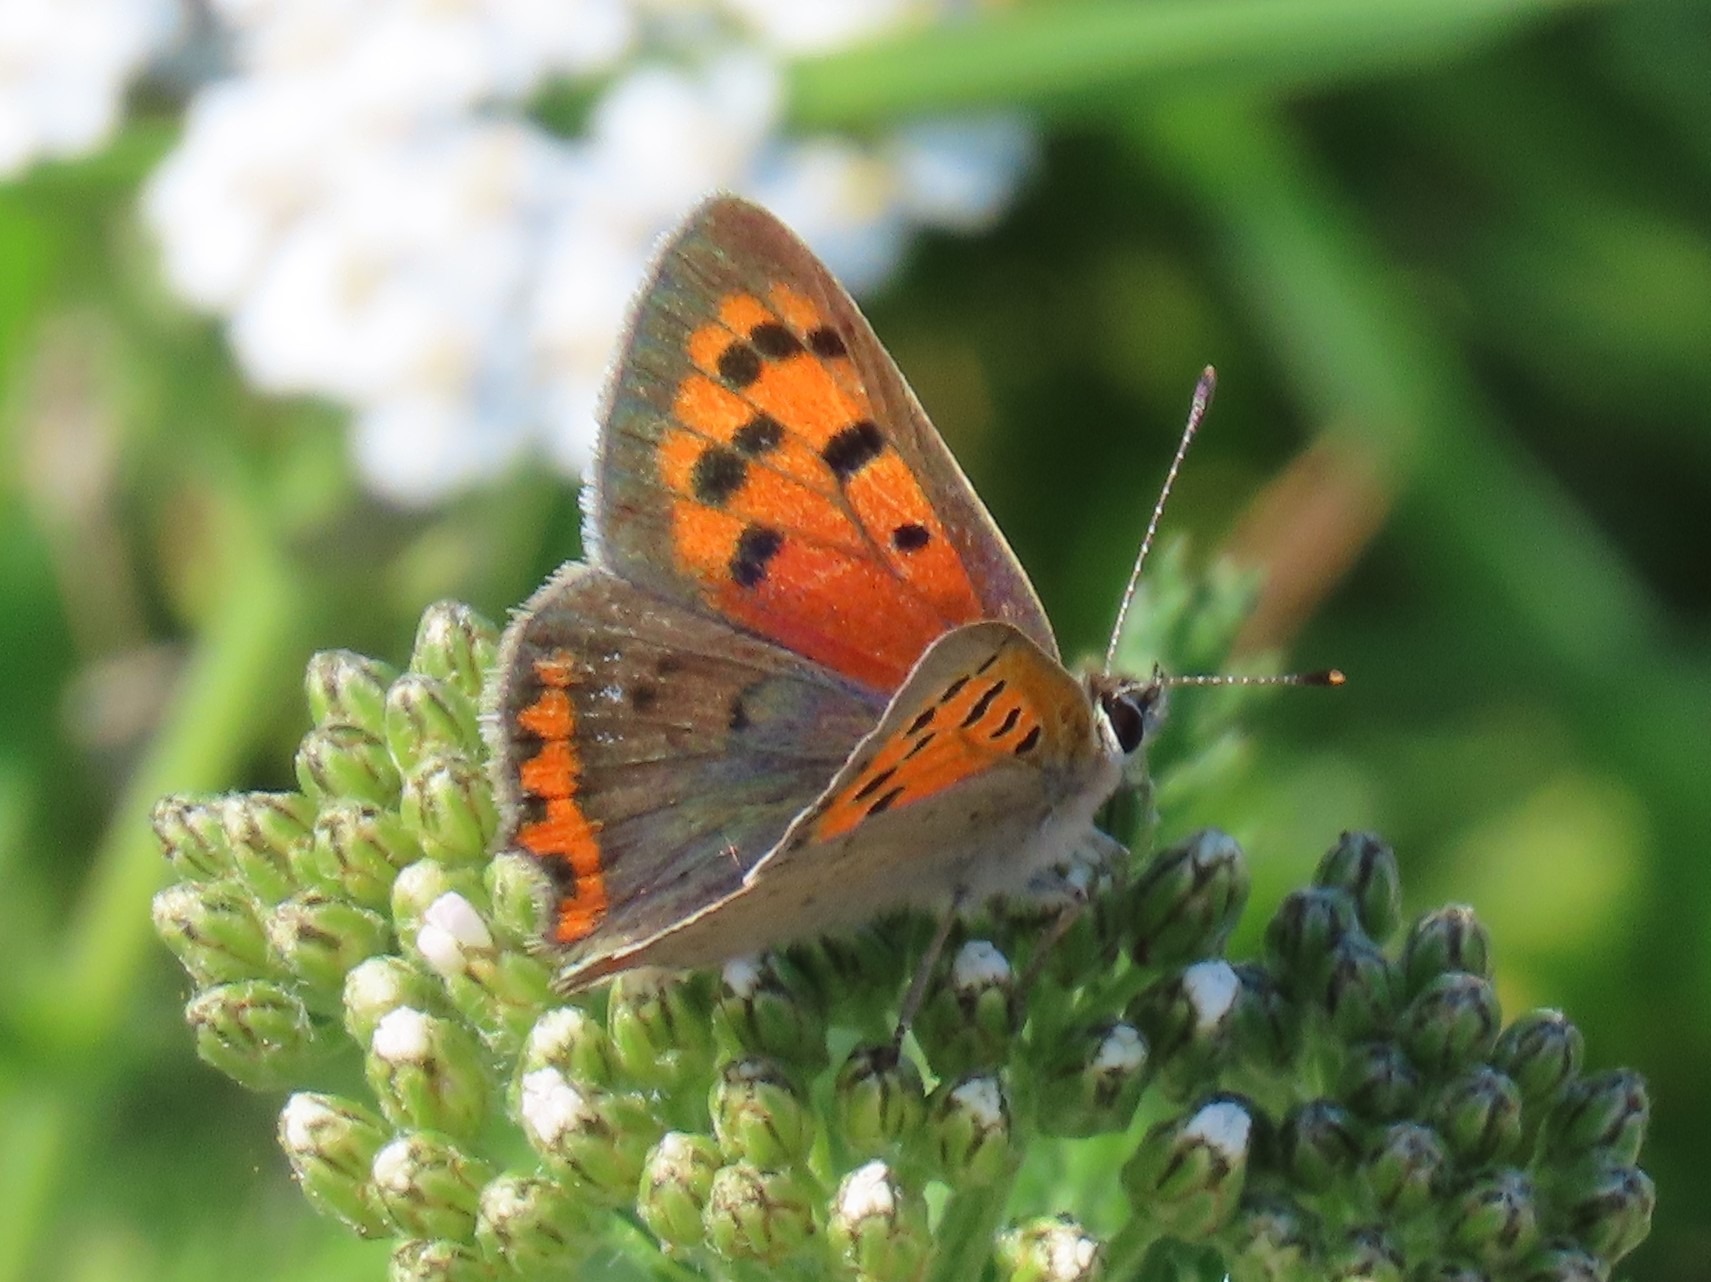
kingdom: Animalia
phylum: Arthropoda
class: Insecta
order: Lepidoptera
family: Lycaenidae
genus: Lycaena
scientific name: Lycaena phlaeas
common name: Lille ildfugl
